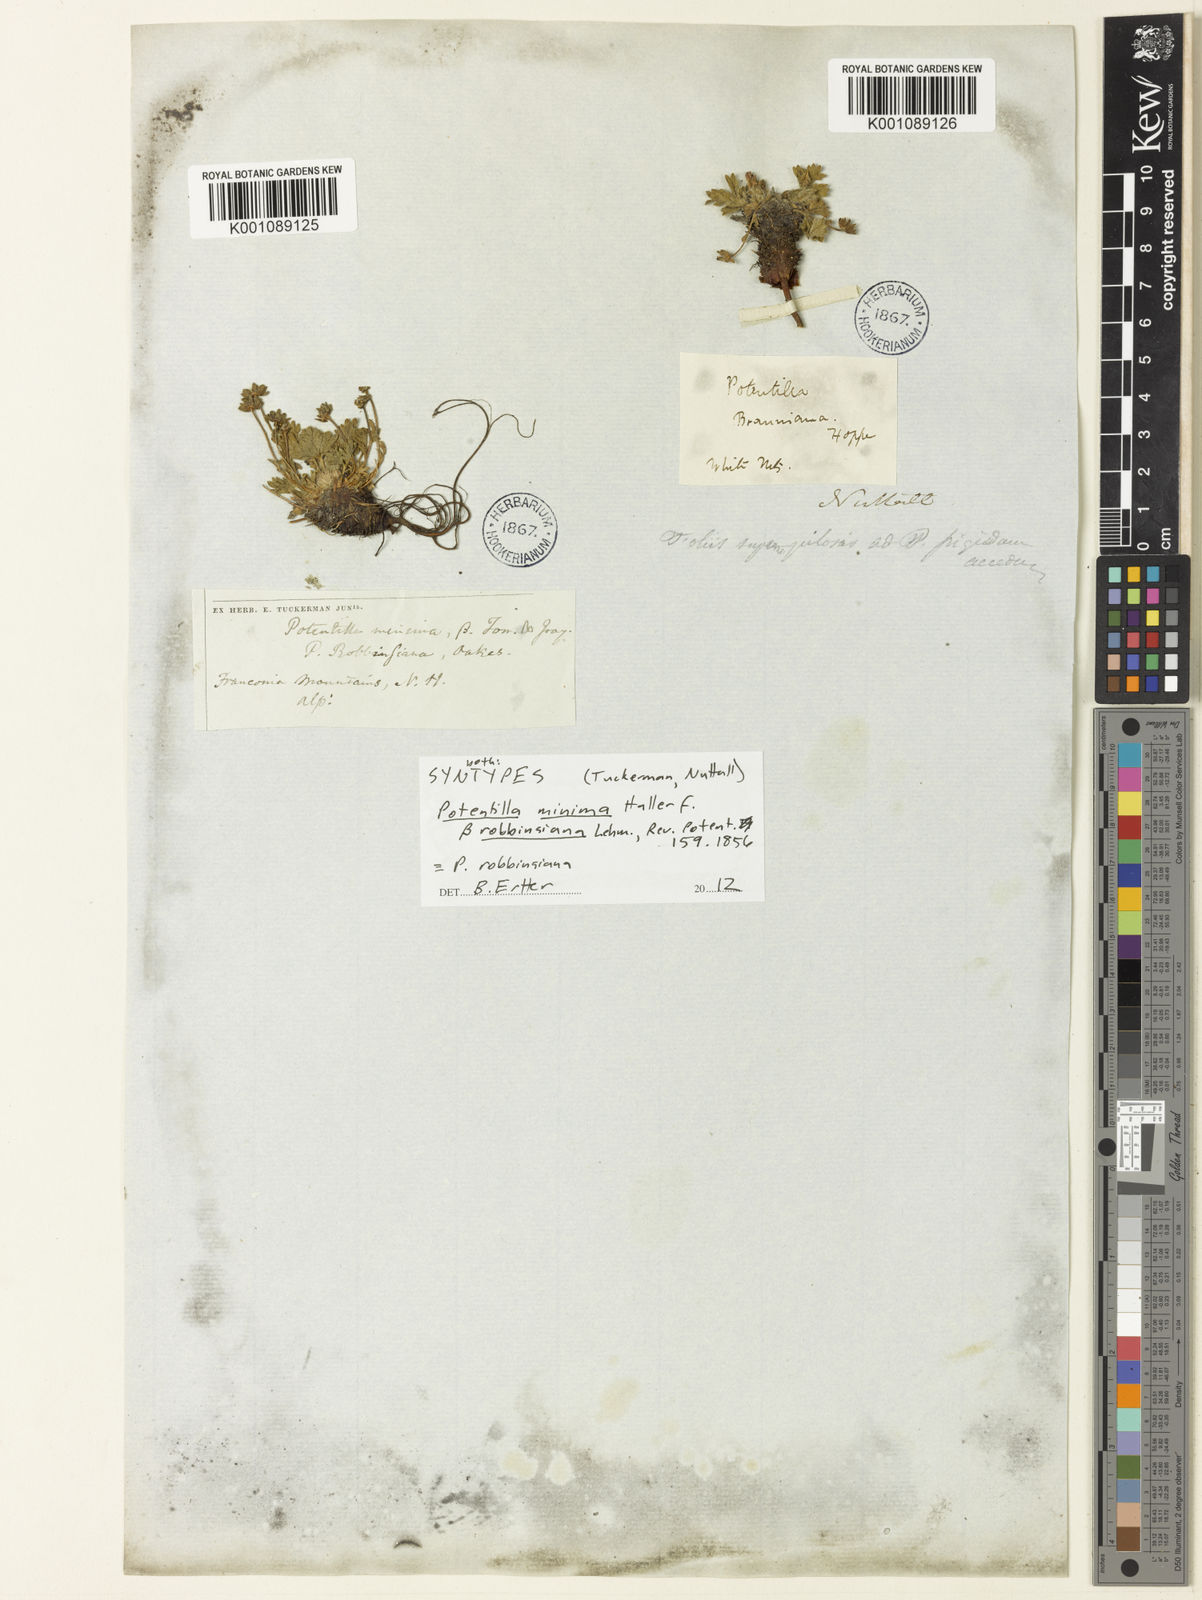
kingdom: Plantae
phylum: Tracheophyta
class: Magnoliopsida
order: Rosales
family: Rosaceae
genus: Potentilla
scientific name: Potentilla
